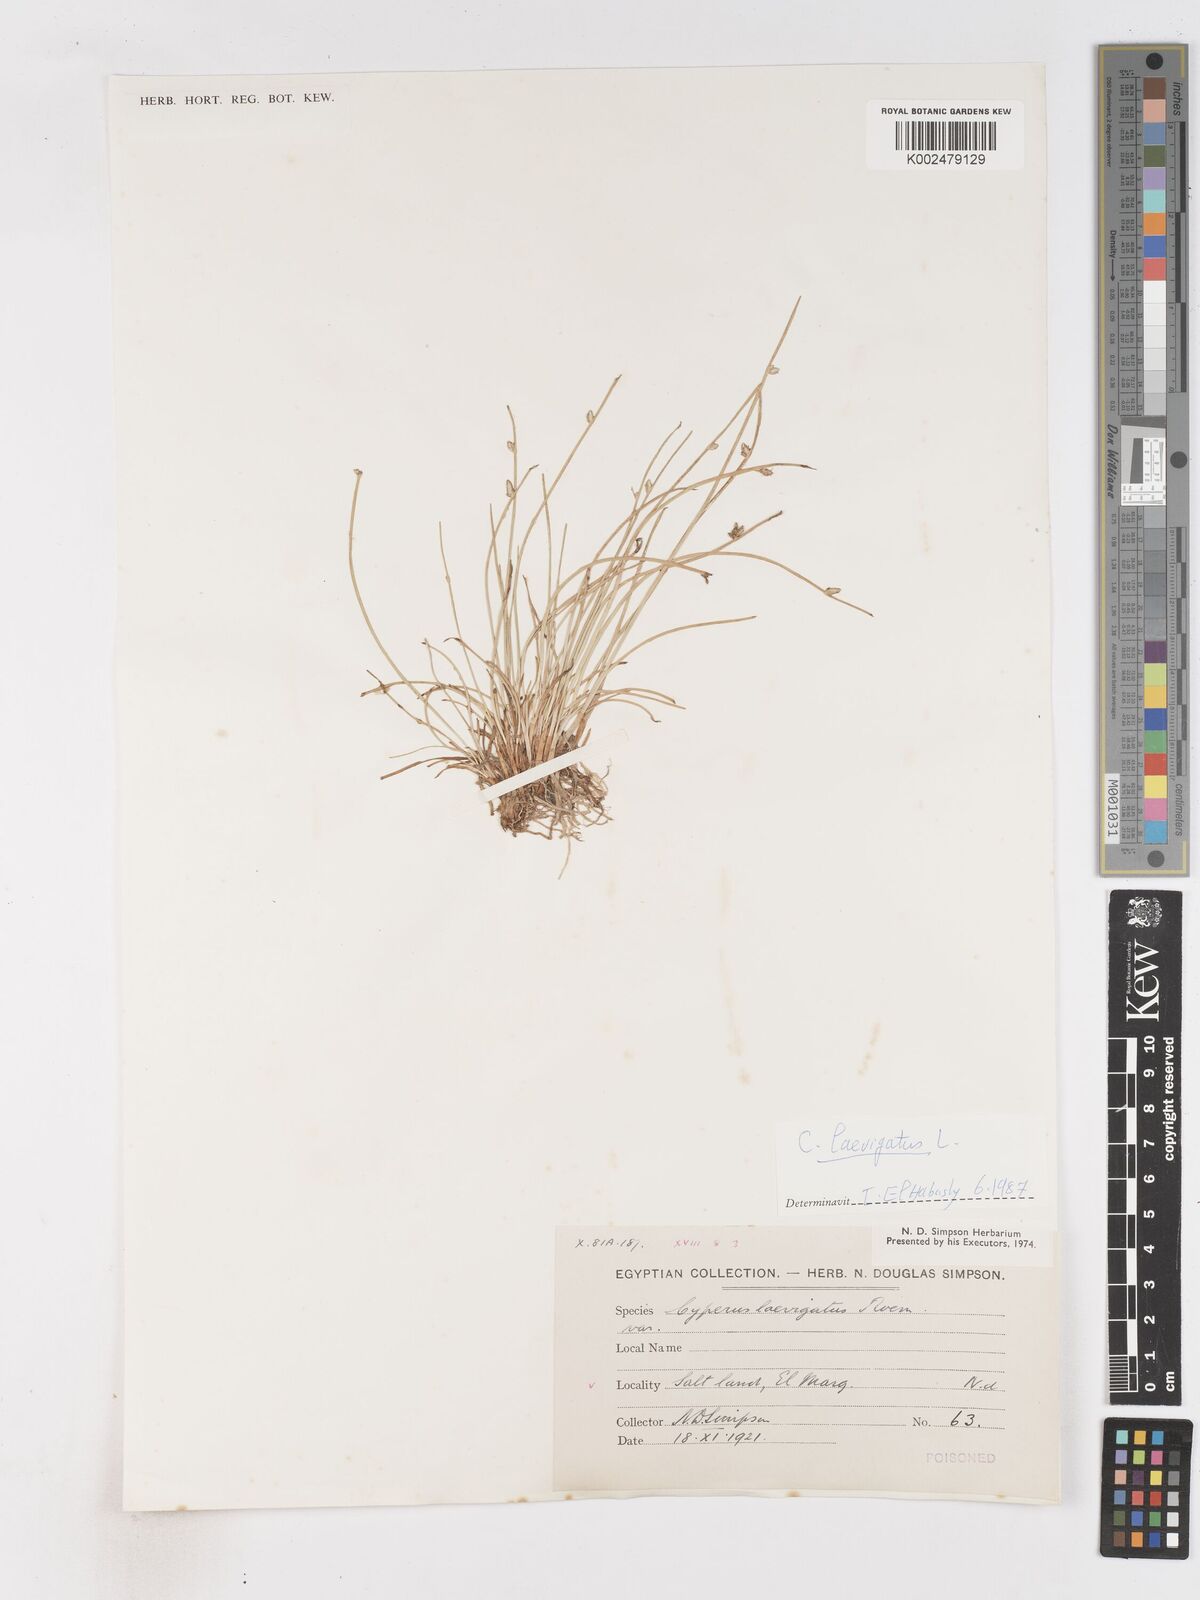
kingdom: Plantae
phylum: Tracheophyta
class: Liliopsida
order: Poales
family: Cyperaceae
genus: Cyperus
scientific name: Cyperus laevigatus
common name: Smooth flat sedge
